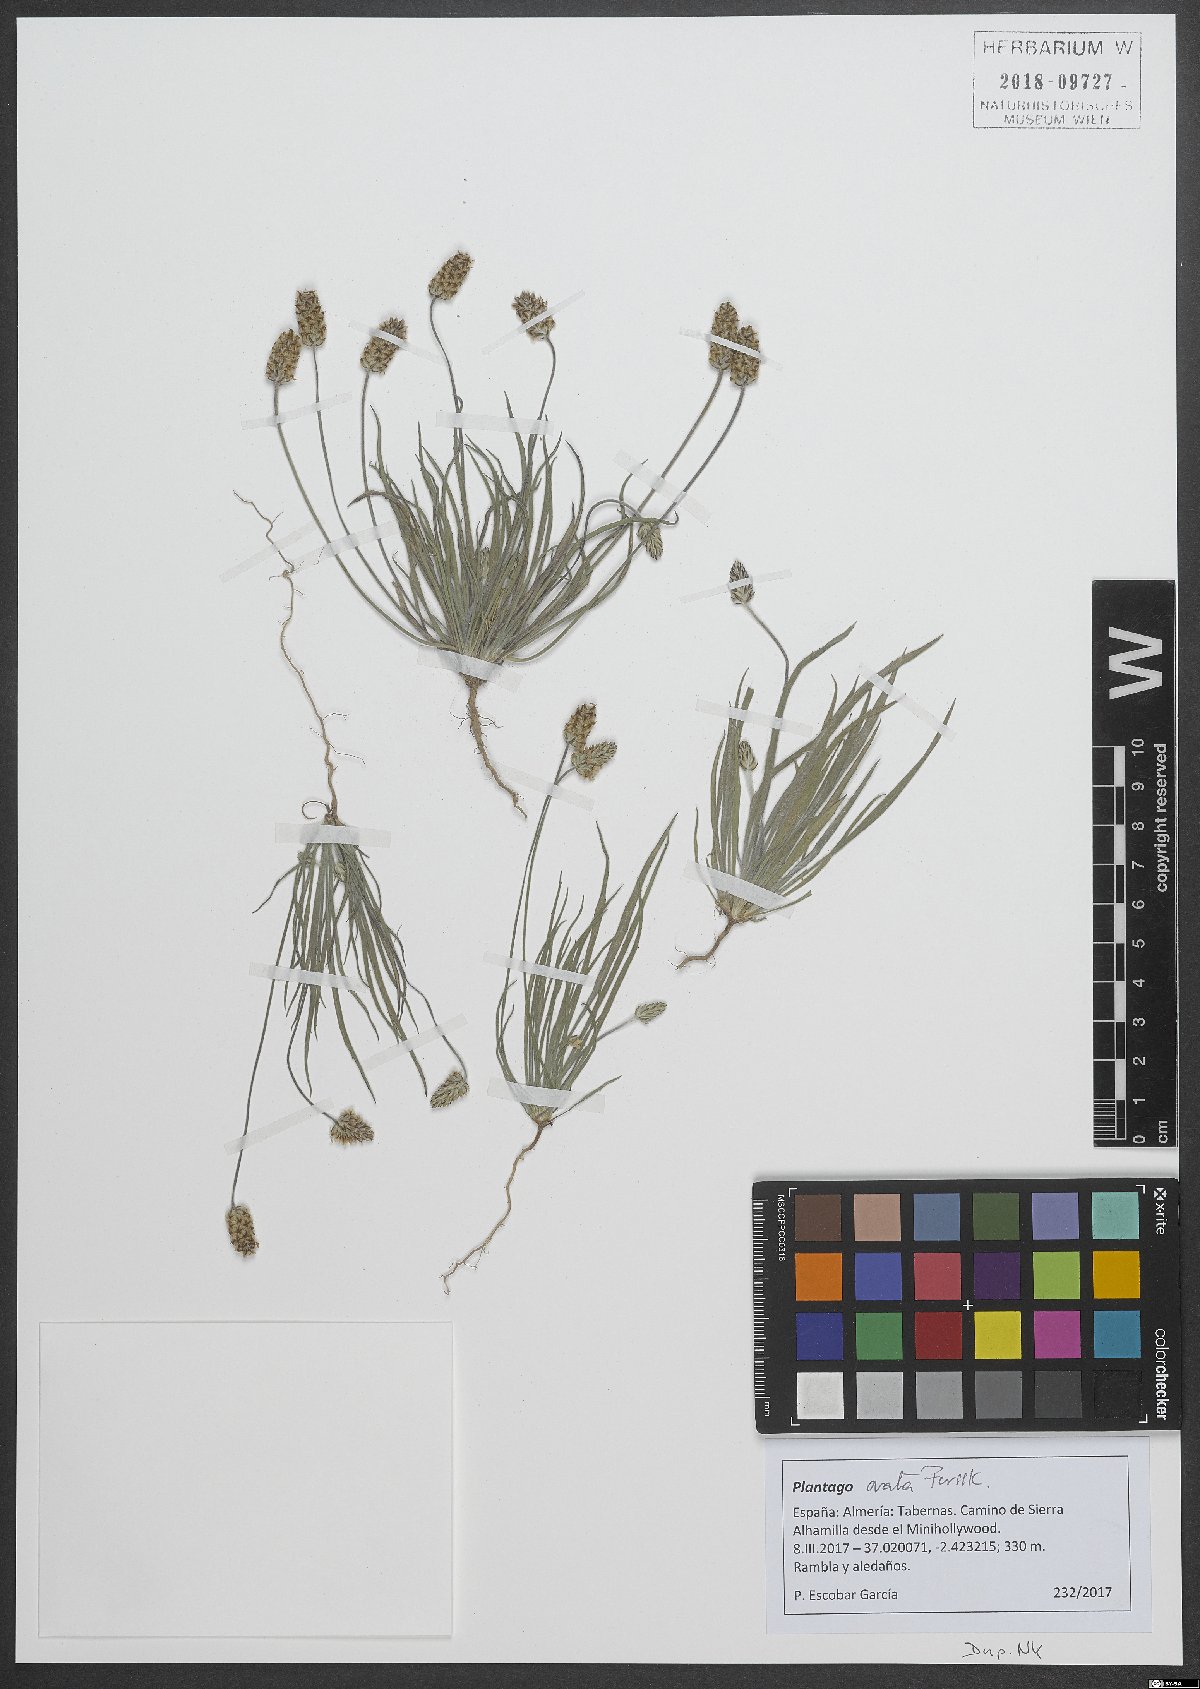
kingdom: Plantae
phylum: Tracheophyta
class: Magnoliopsida
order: Lamiales
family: Plantaginaceae
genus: Plantago
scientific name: Plantago ovata
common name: Blond plantain
